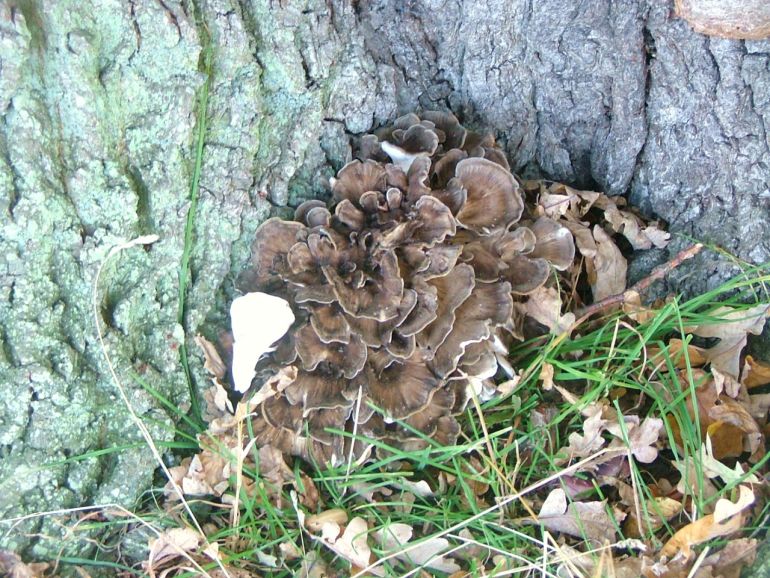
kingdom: Fungi
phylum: Basidiomycota
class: Agaricomycetes
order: Polyporales
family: Grifolaceae
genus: Grifola
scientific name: Grifola frondosa
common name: tueporesvamp
